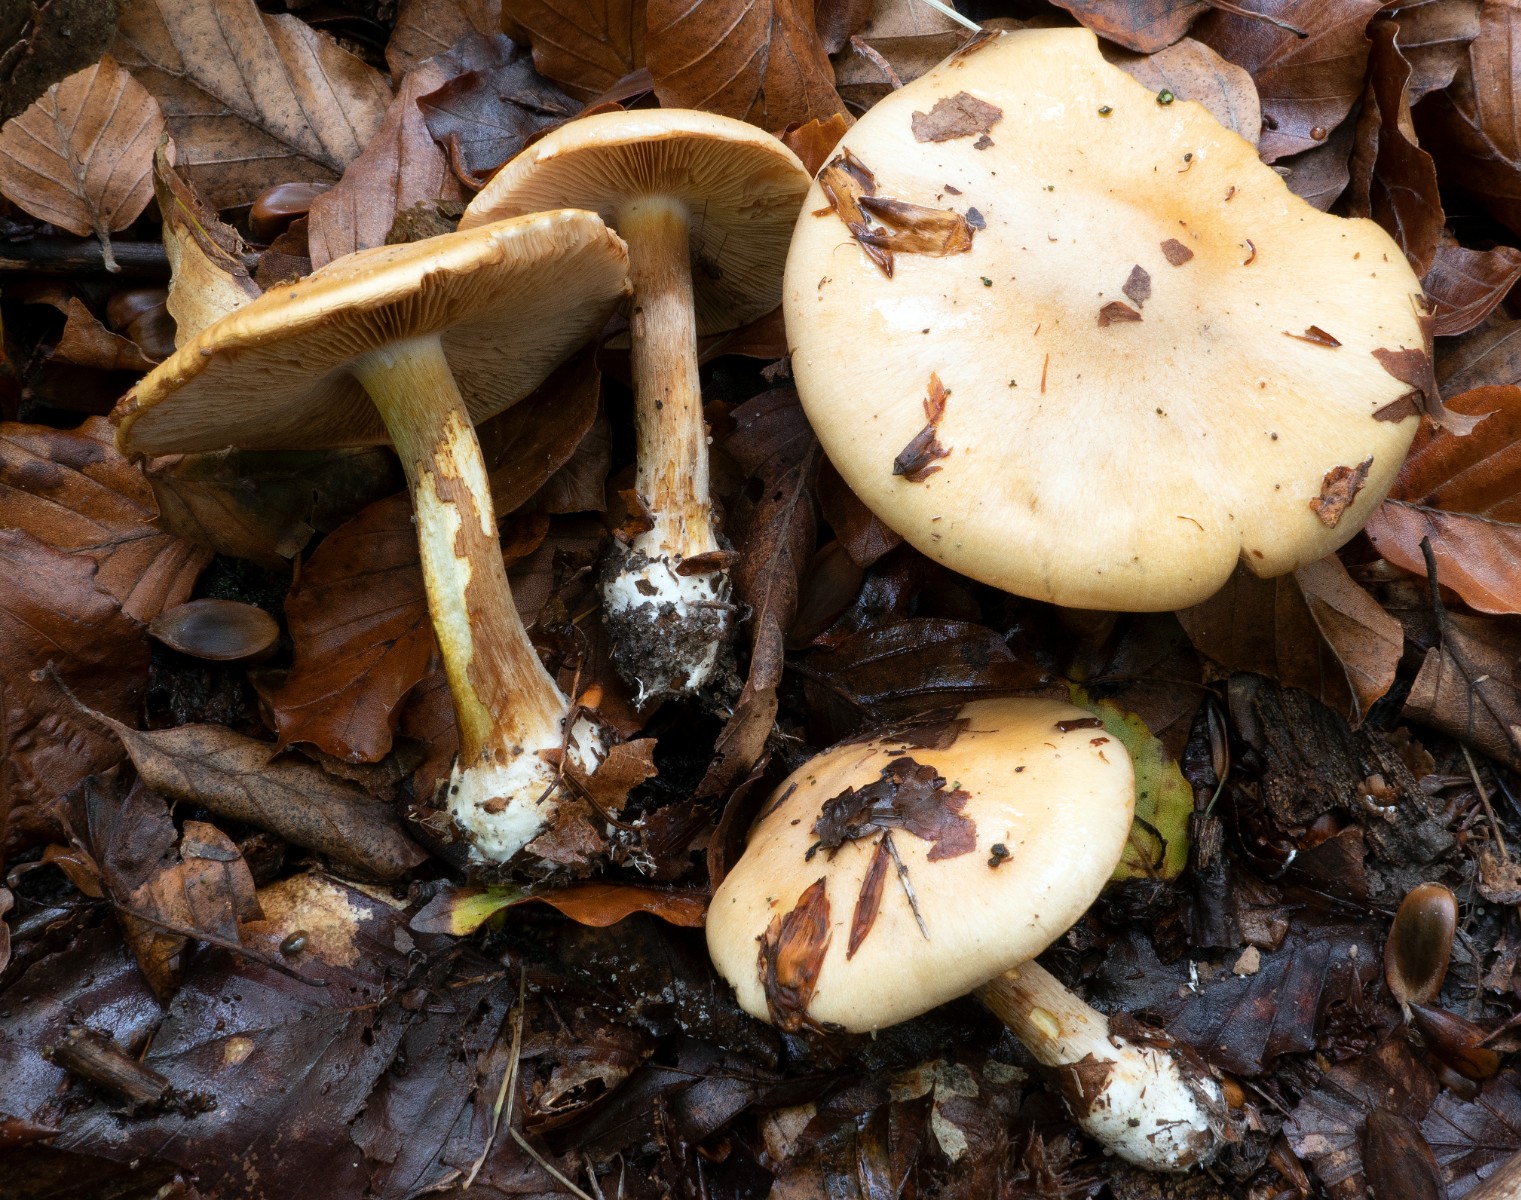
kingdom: Fungi
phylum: Basidiomycota
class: Agaricomycetes
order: Agaricales
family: Cortinariaceae
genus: Thaxterogaster
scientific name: Thaxterogaster talus
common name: knogle-slørhat
